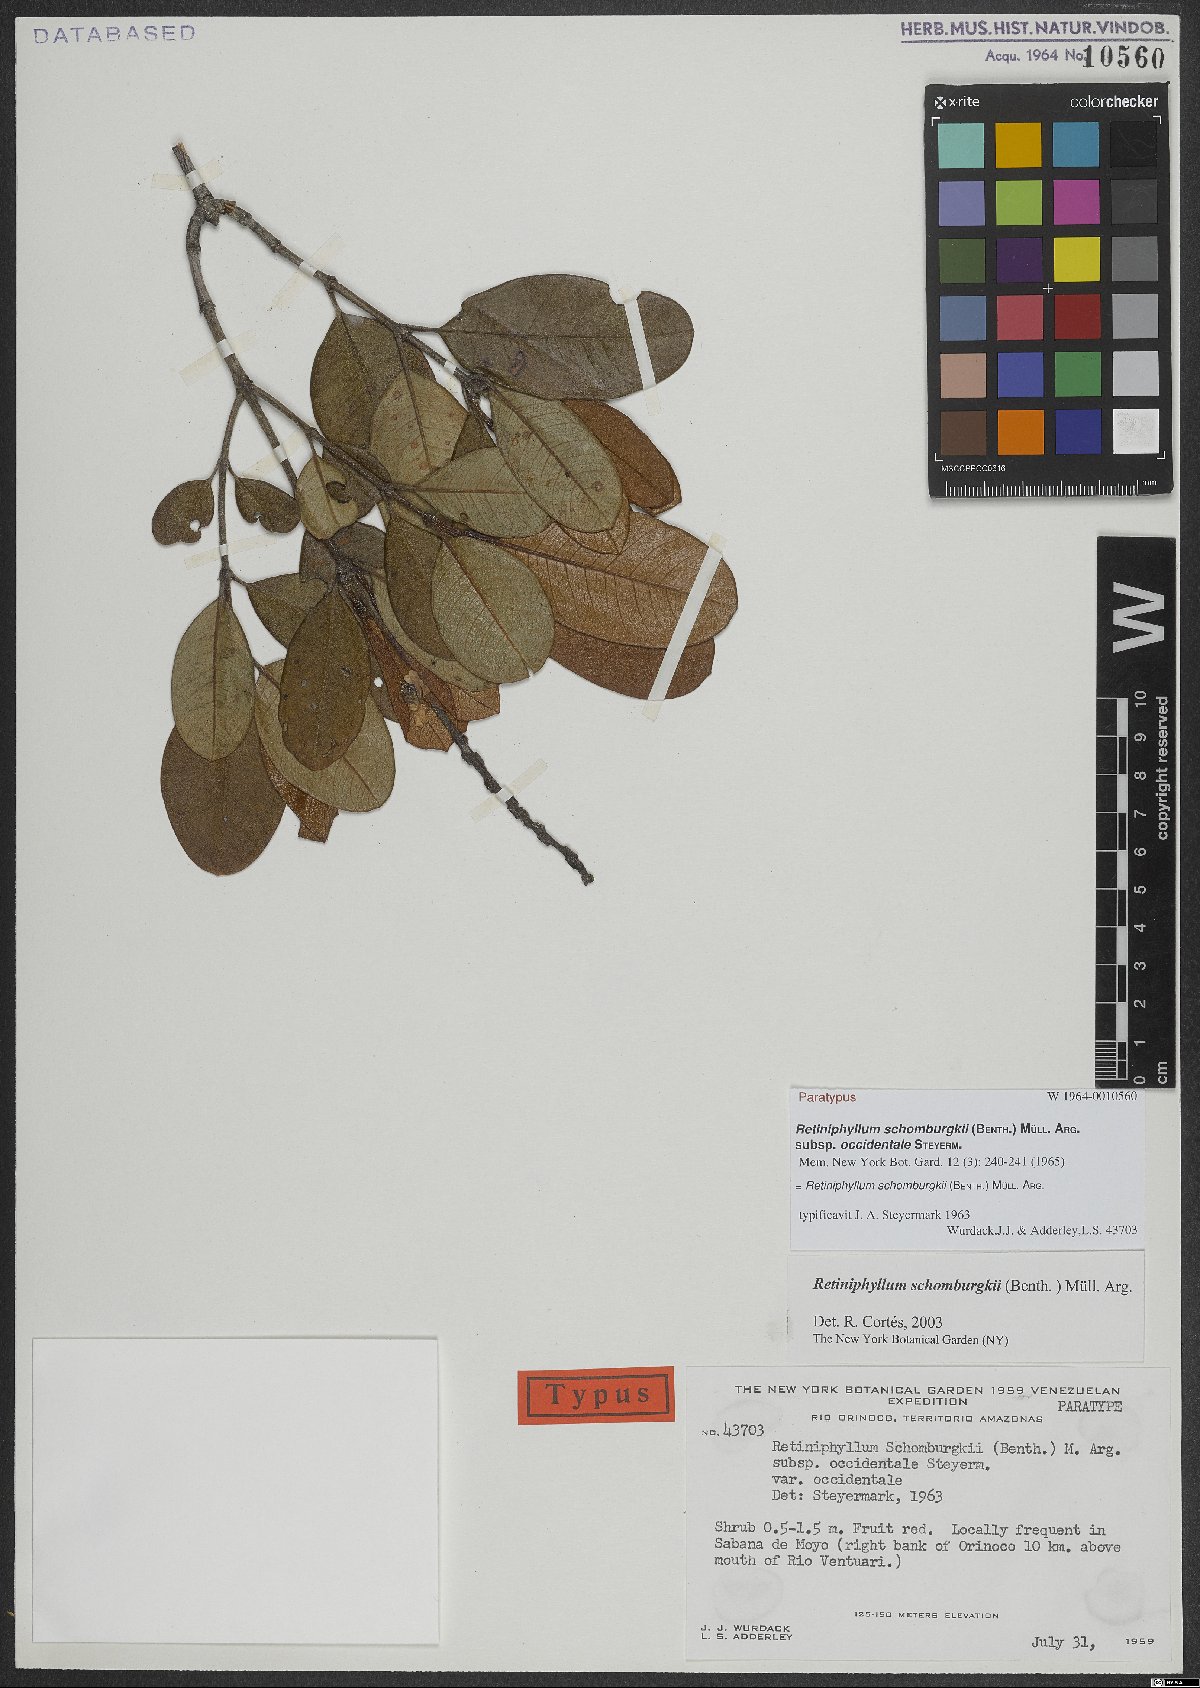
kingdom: Plantae
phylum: Tracheophyta
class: Magnoliopsida
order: Gentianales
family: Rubiaceae
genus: Retiniphyllum
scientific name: Retiniphyllum schomburgkii
